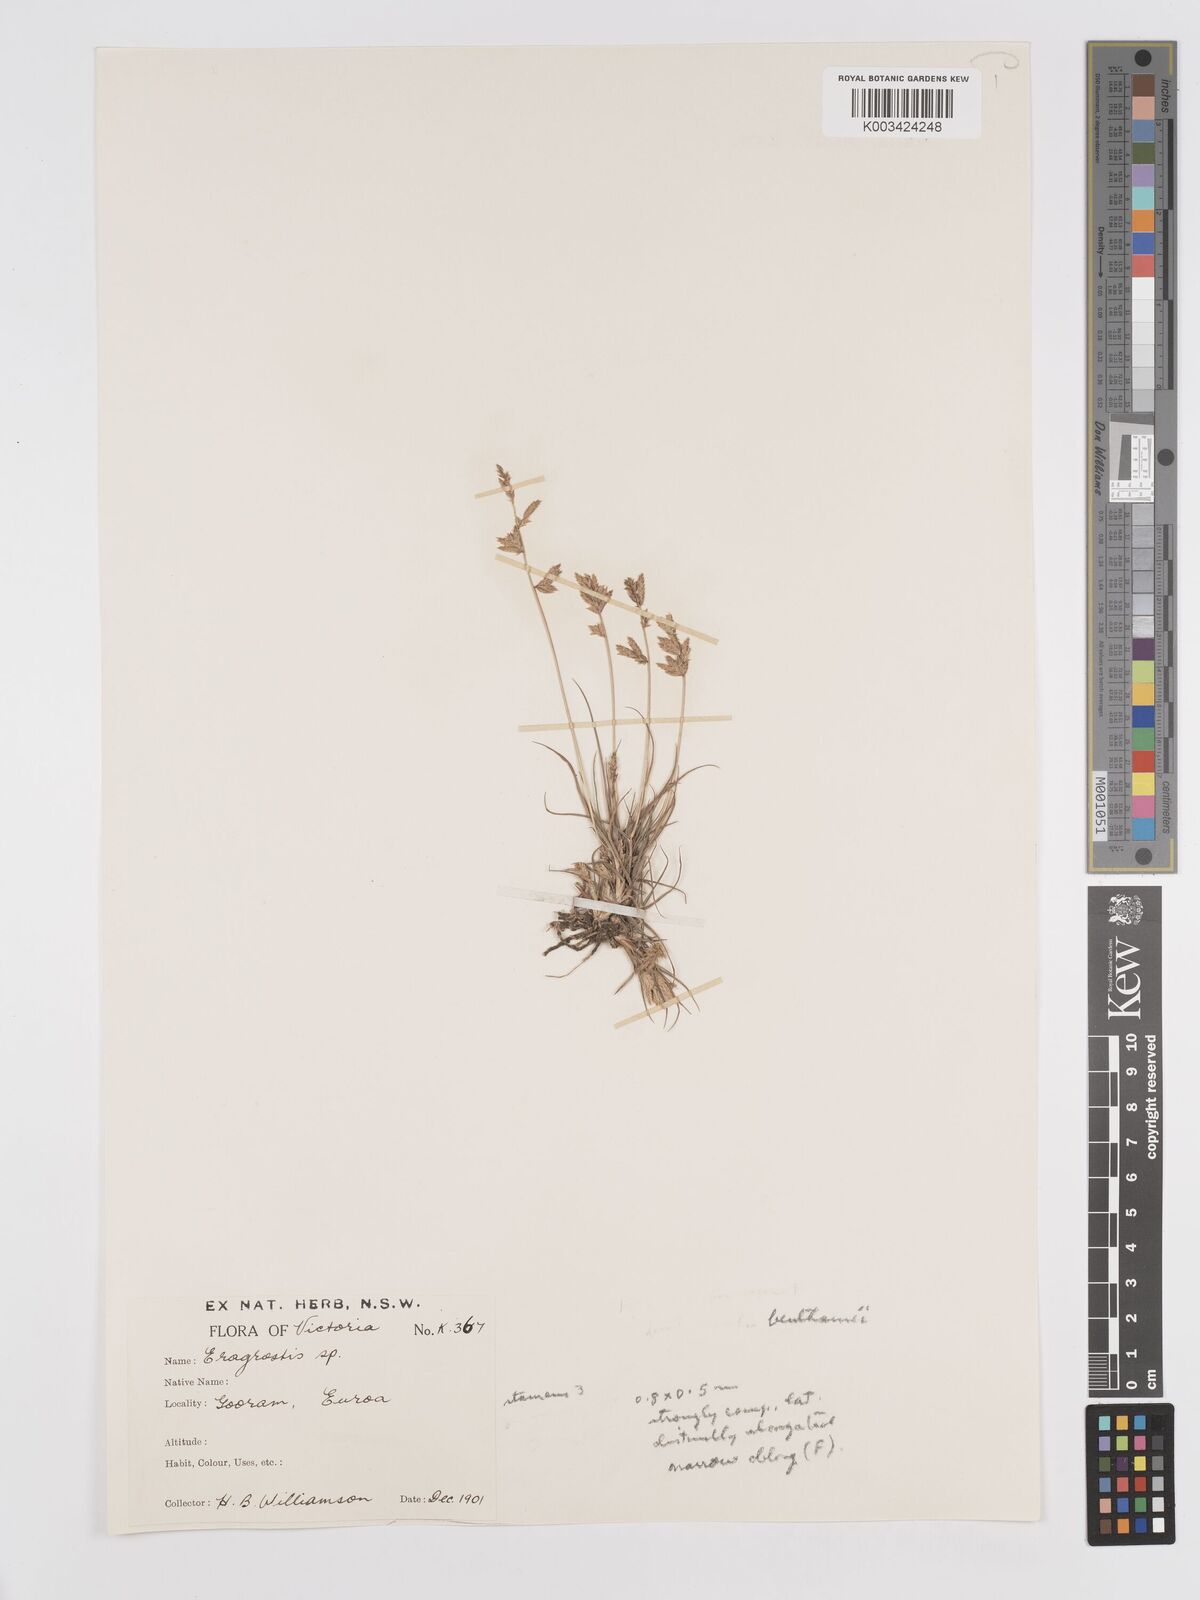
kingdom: Plantae
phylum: Tracheophyta
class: Liliopsida
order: Poales
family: Poaceae
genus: Eragrostis
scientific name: Eragrostis brownii
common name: Lovegrass
